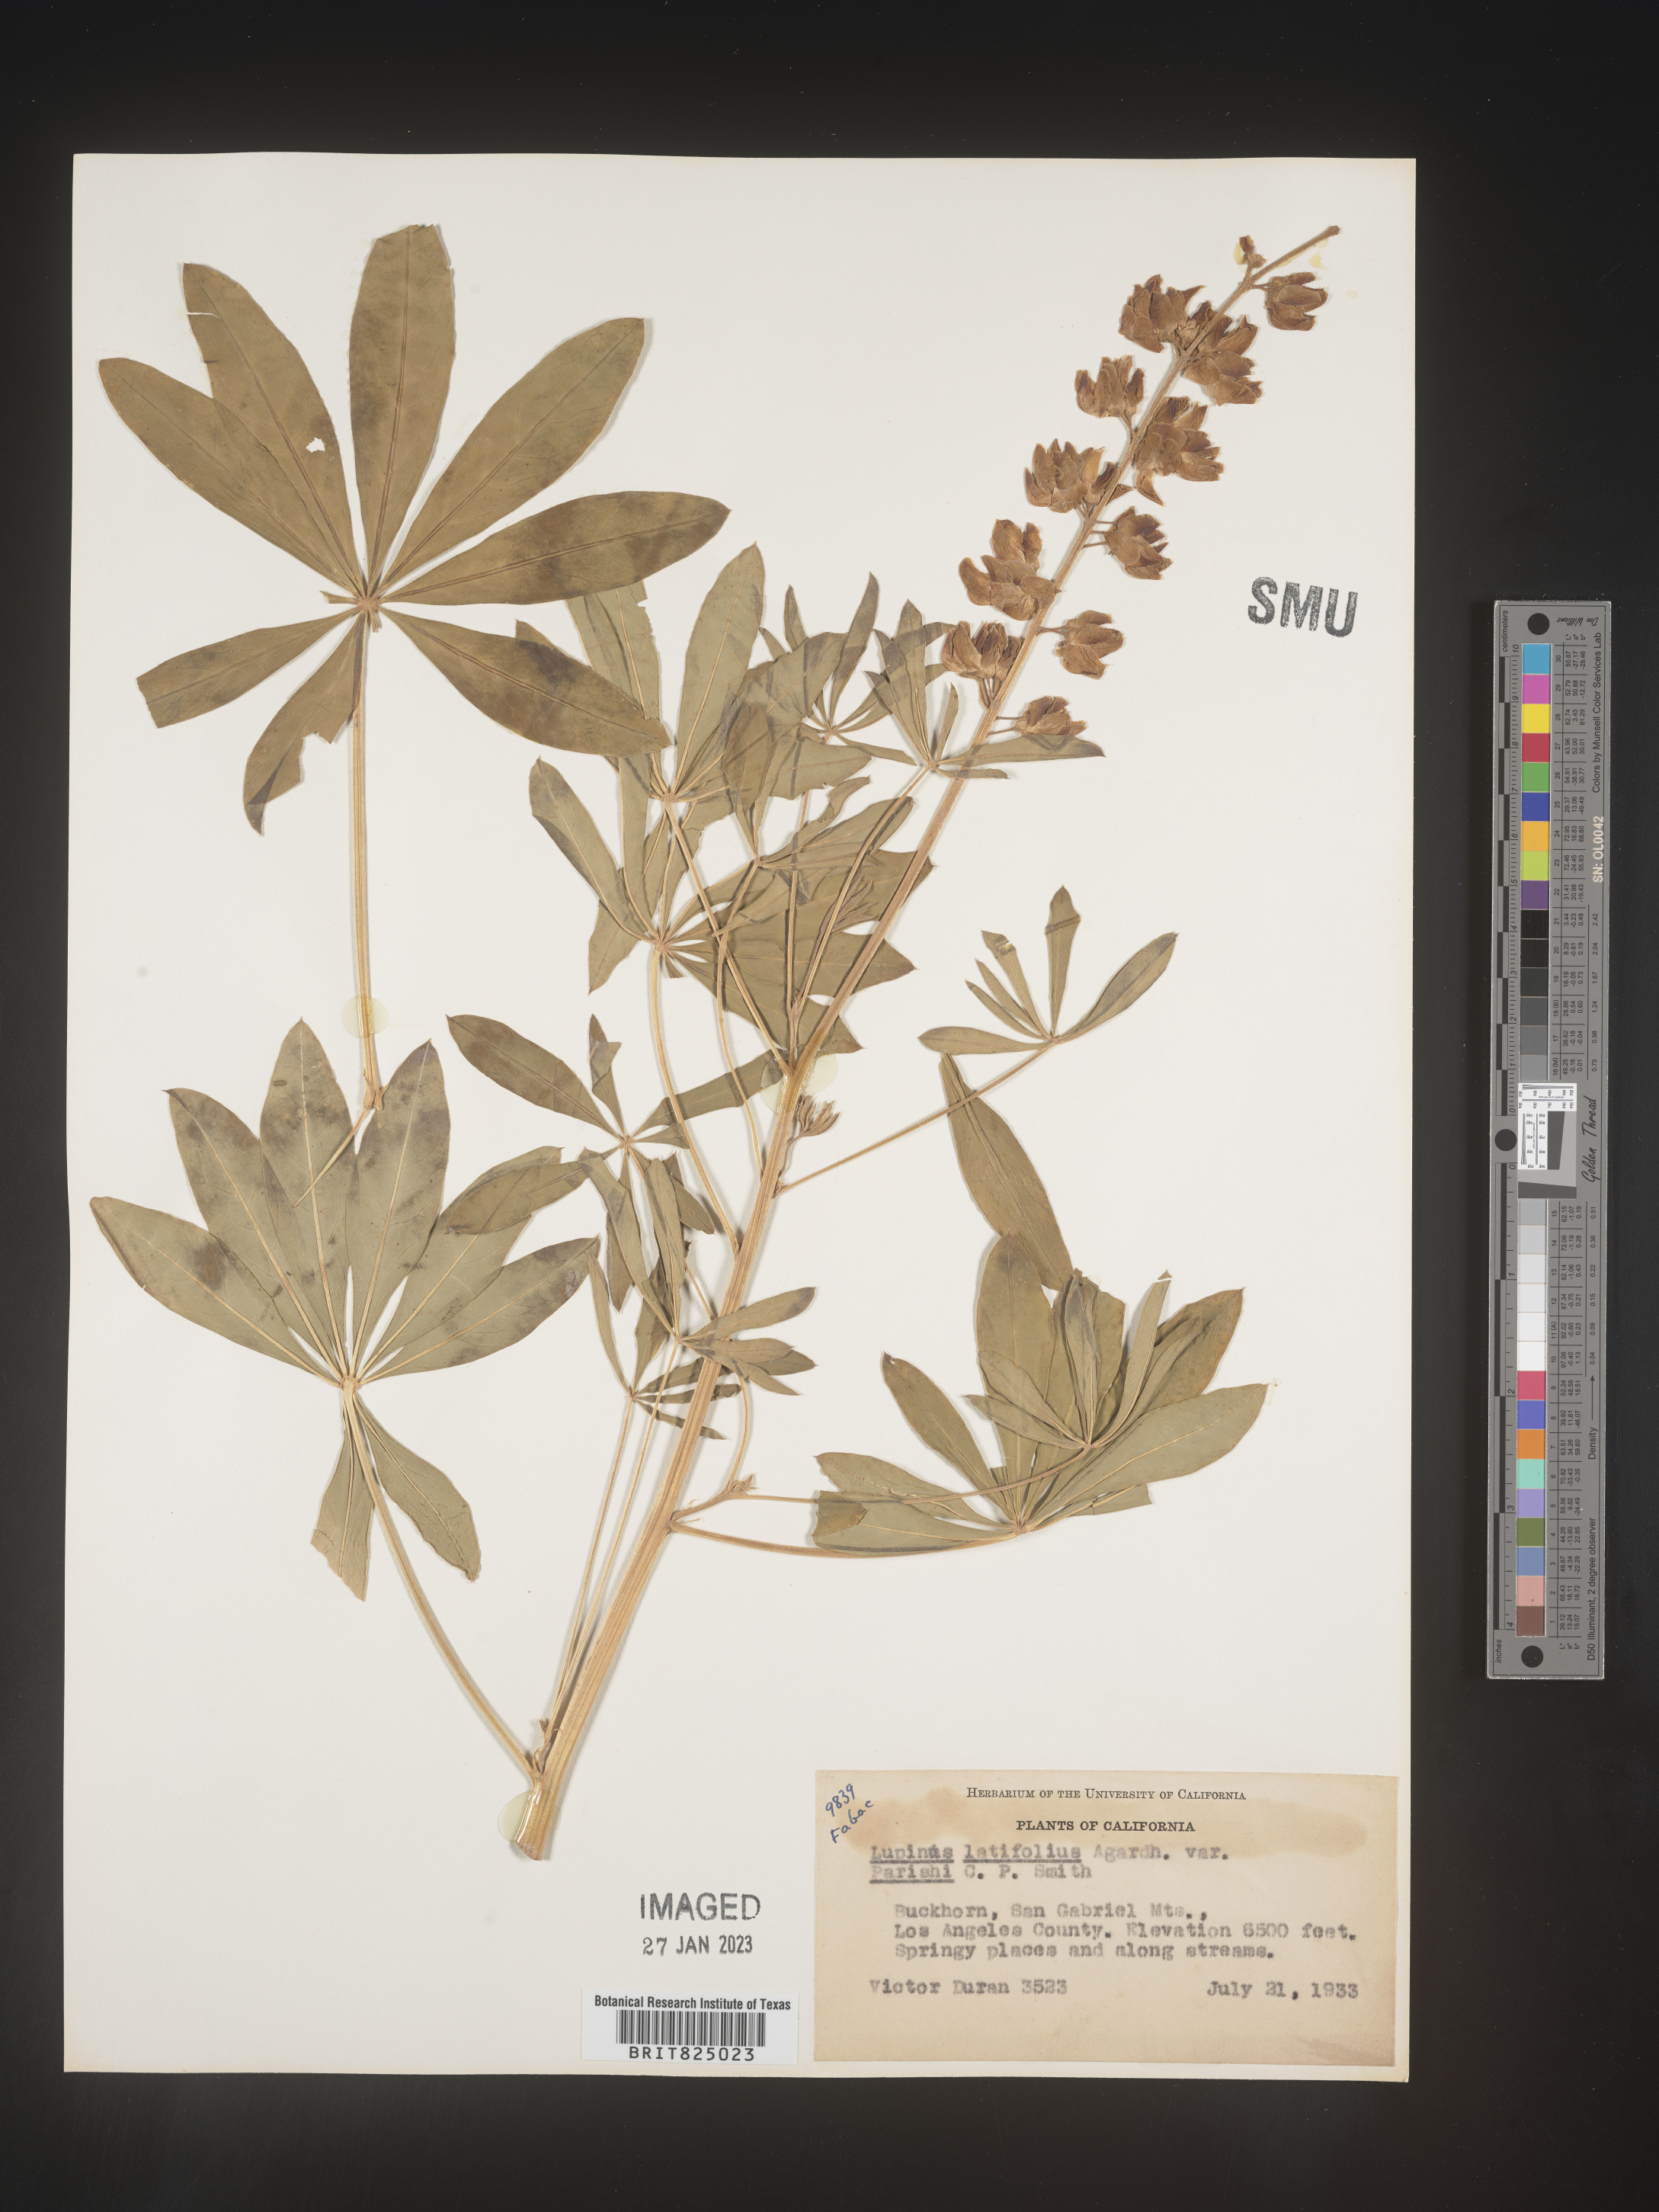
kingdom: Plantae
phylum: Tracheophyta
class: Magnoliopsida
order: Fabales
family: Fabaceae
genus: Lupinus
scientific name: Lupinus
